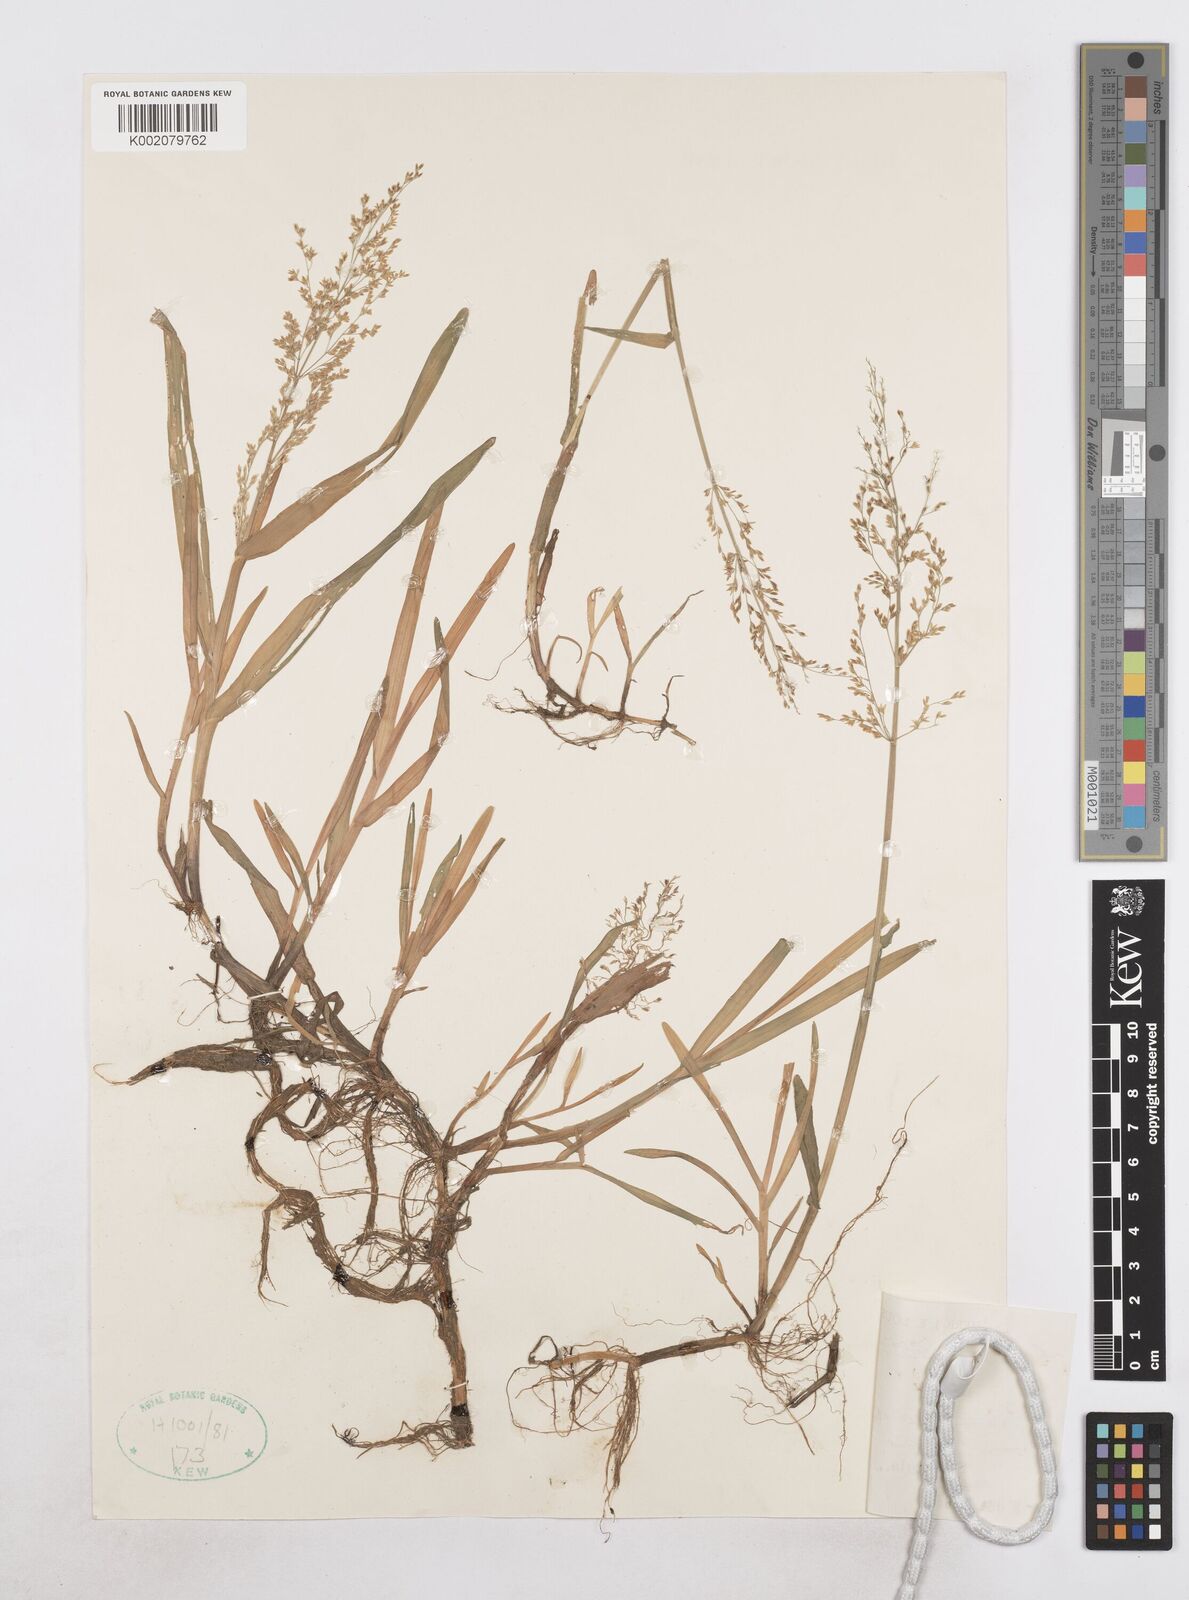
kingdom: Plantae
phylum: Tracheophyta
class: Liliopsida
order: Poales
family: Poaceae
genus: Catabrosa
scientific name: Catabrosa aquatica
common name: Whorl-grass
